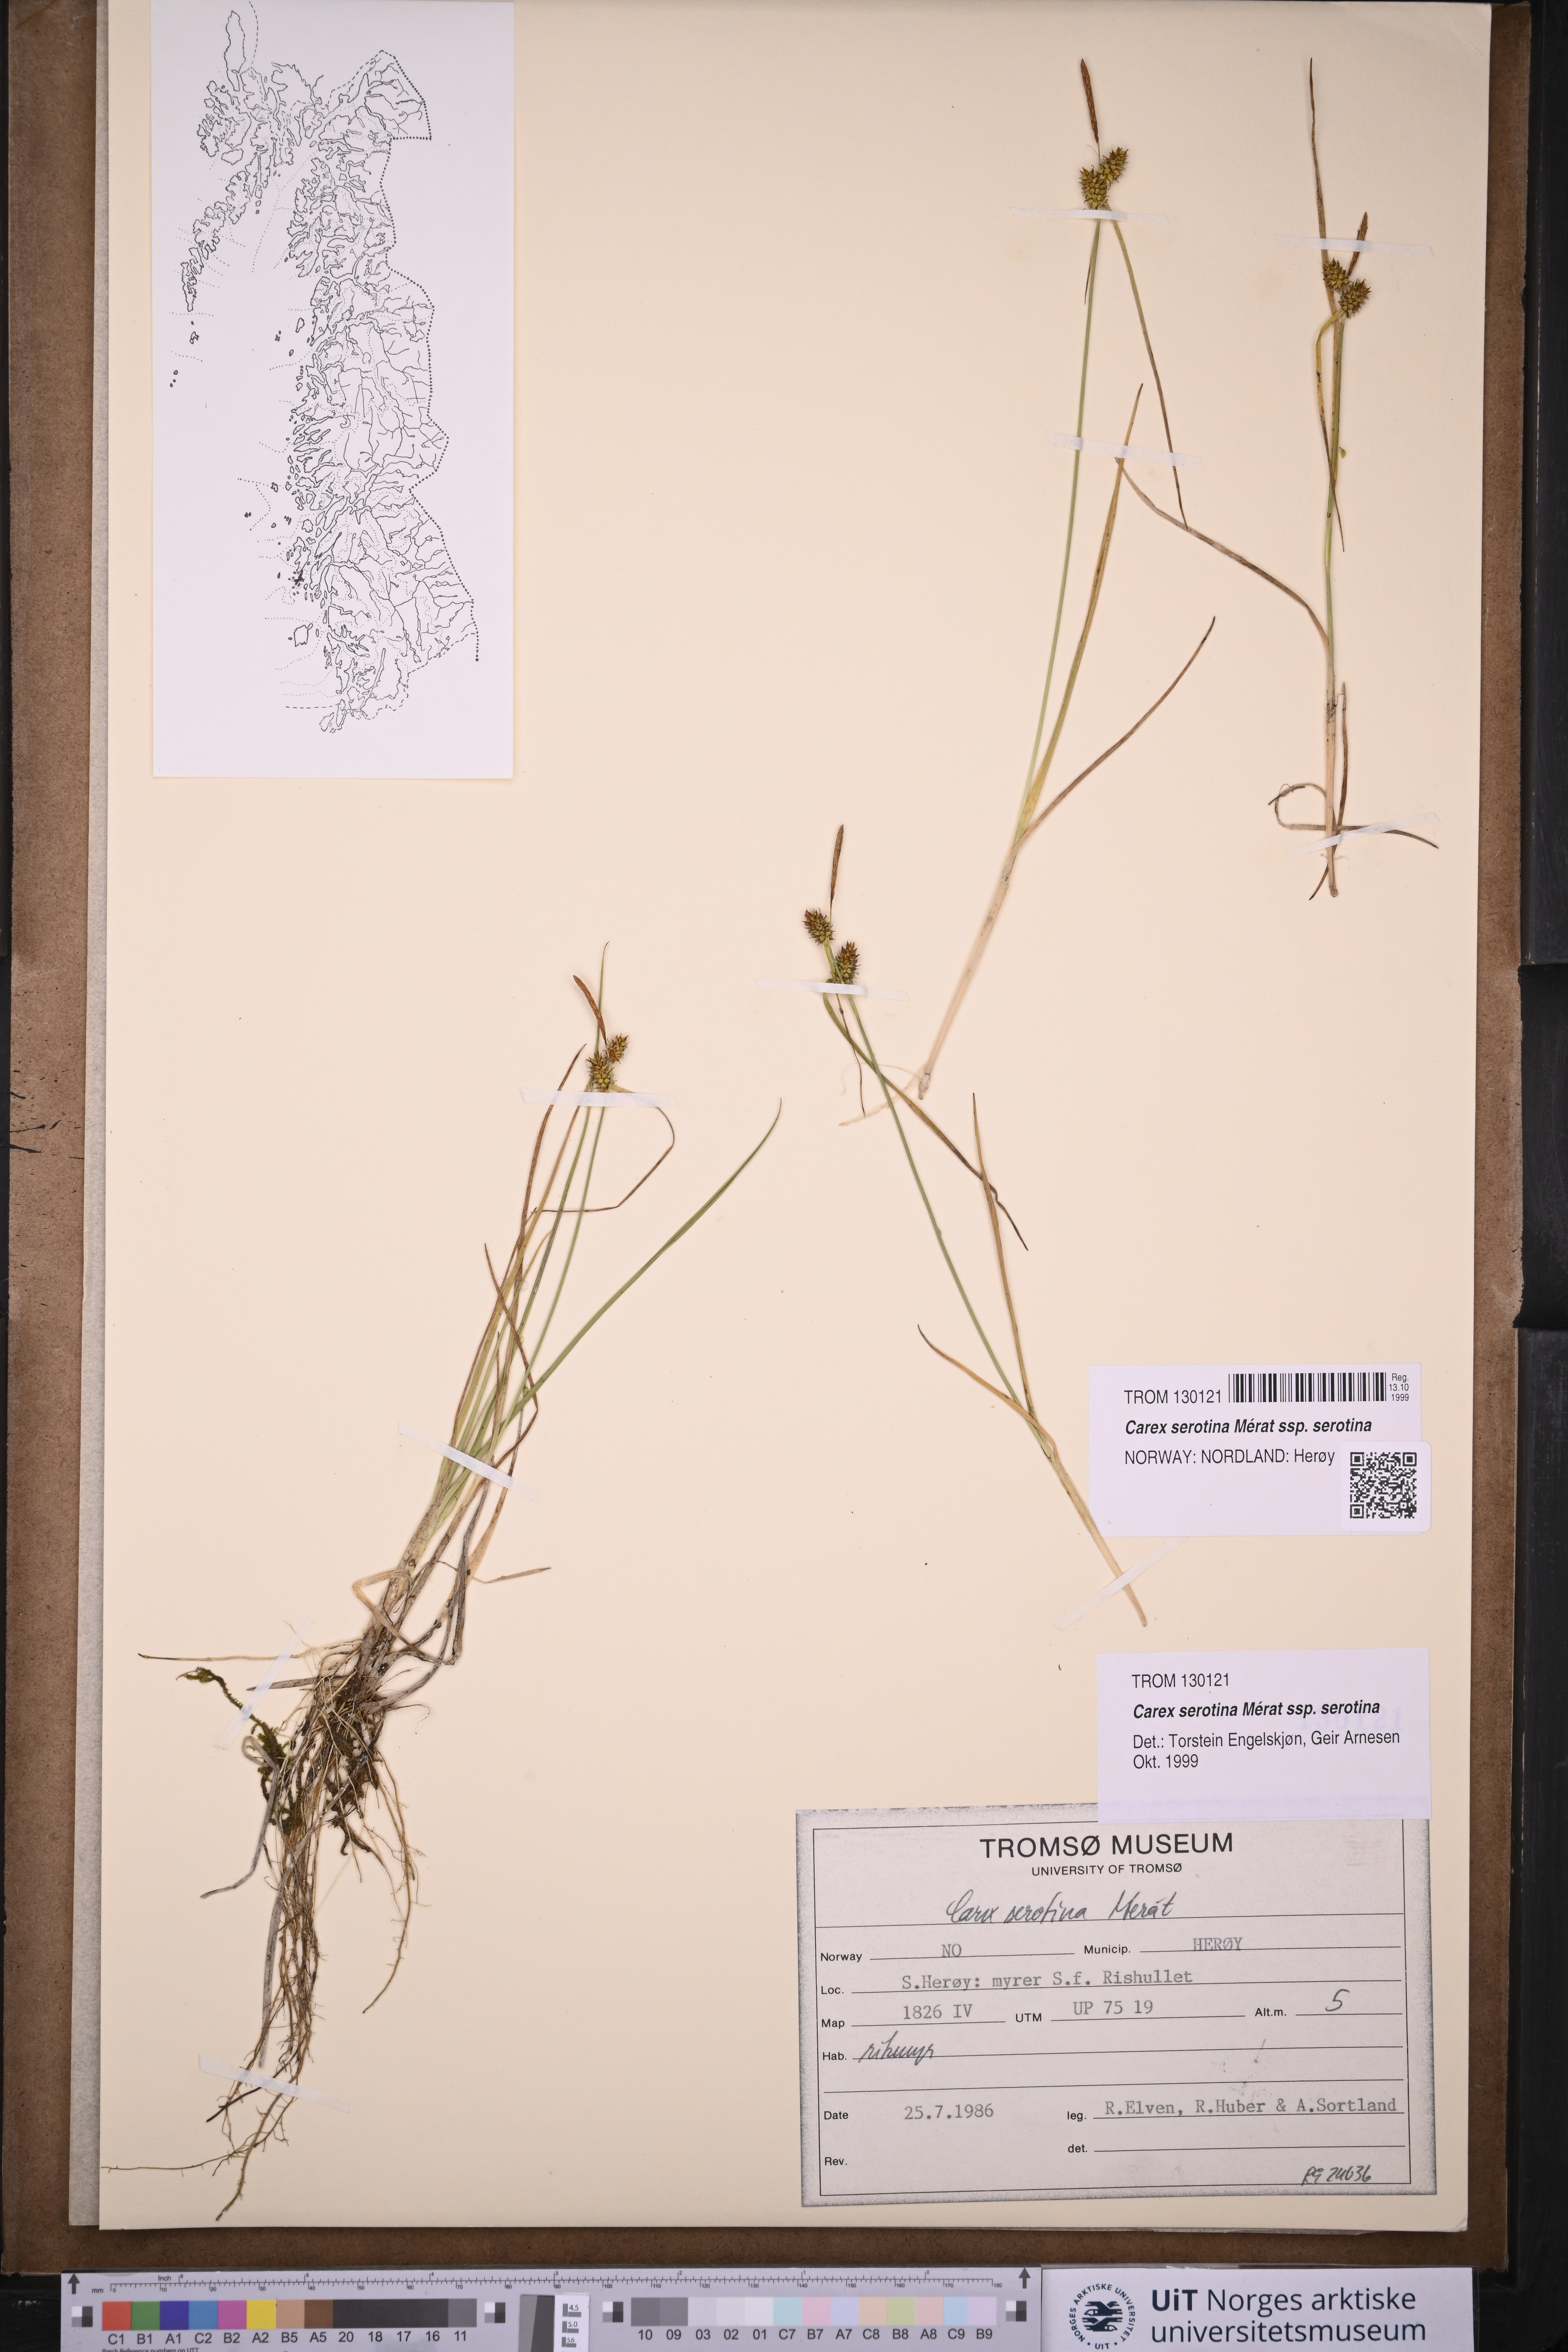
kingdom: Plantae
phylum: Tracheophyta
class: Liliopsida
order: Poales
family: Cyperaceae
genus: Carex
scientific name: Carex oederi
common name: Common & small-fruited yellow-sedge
